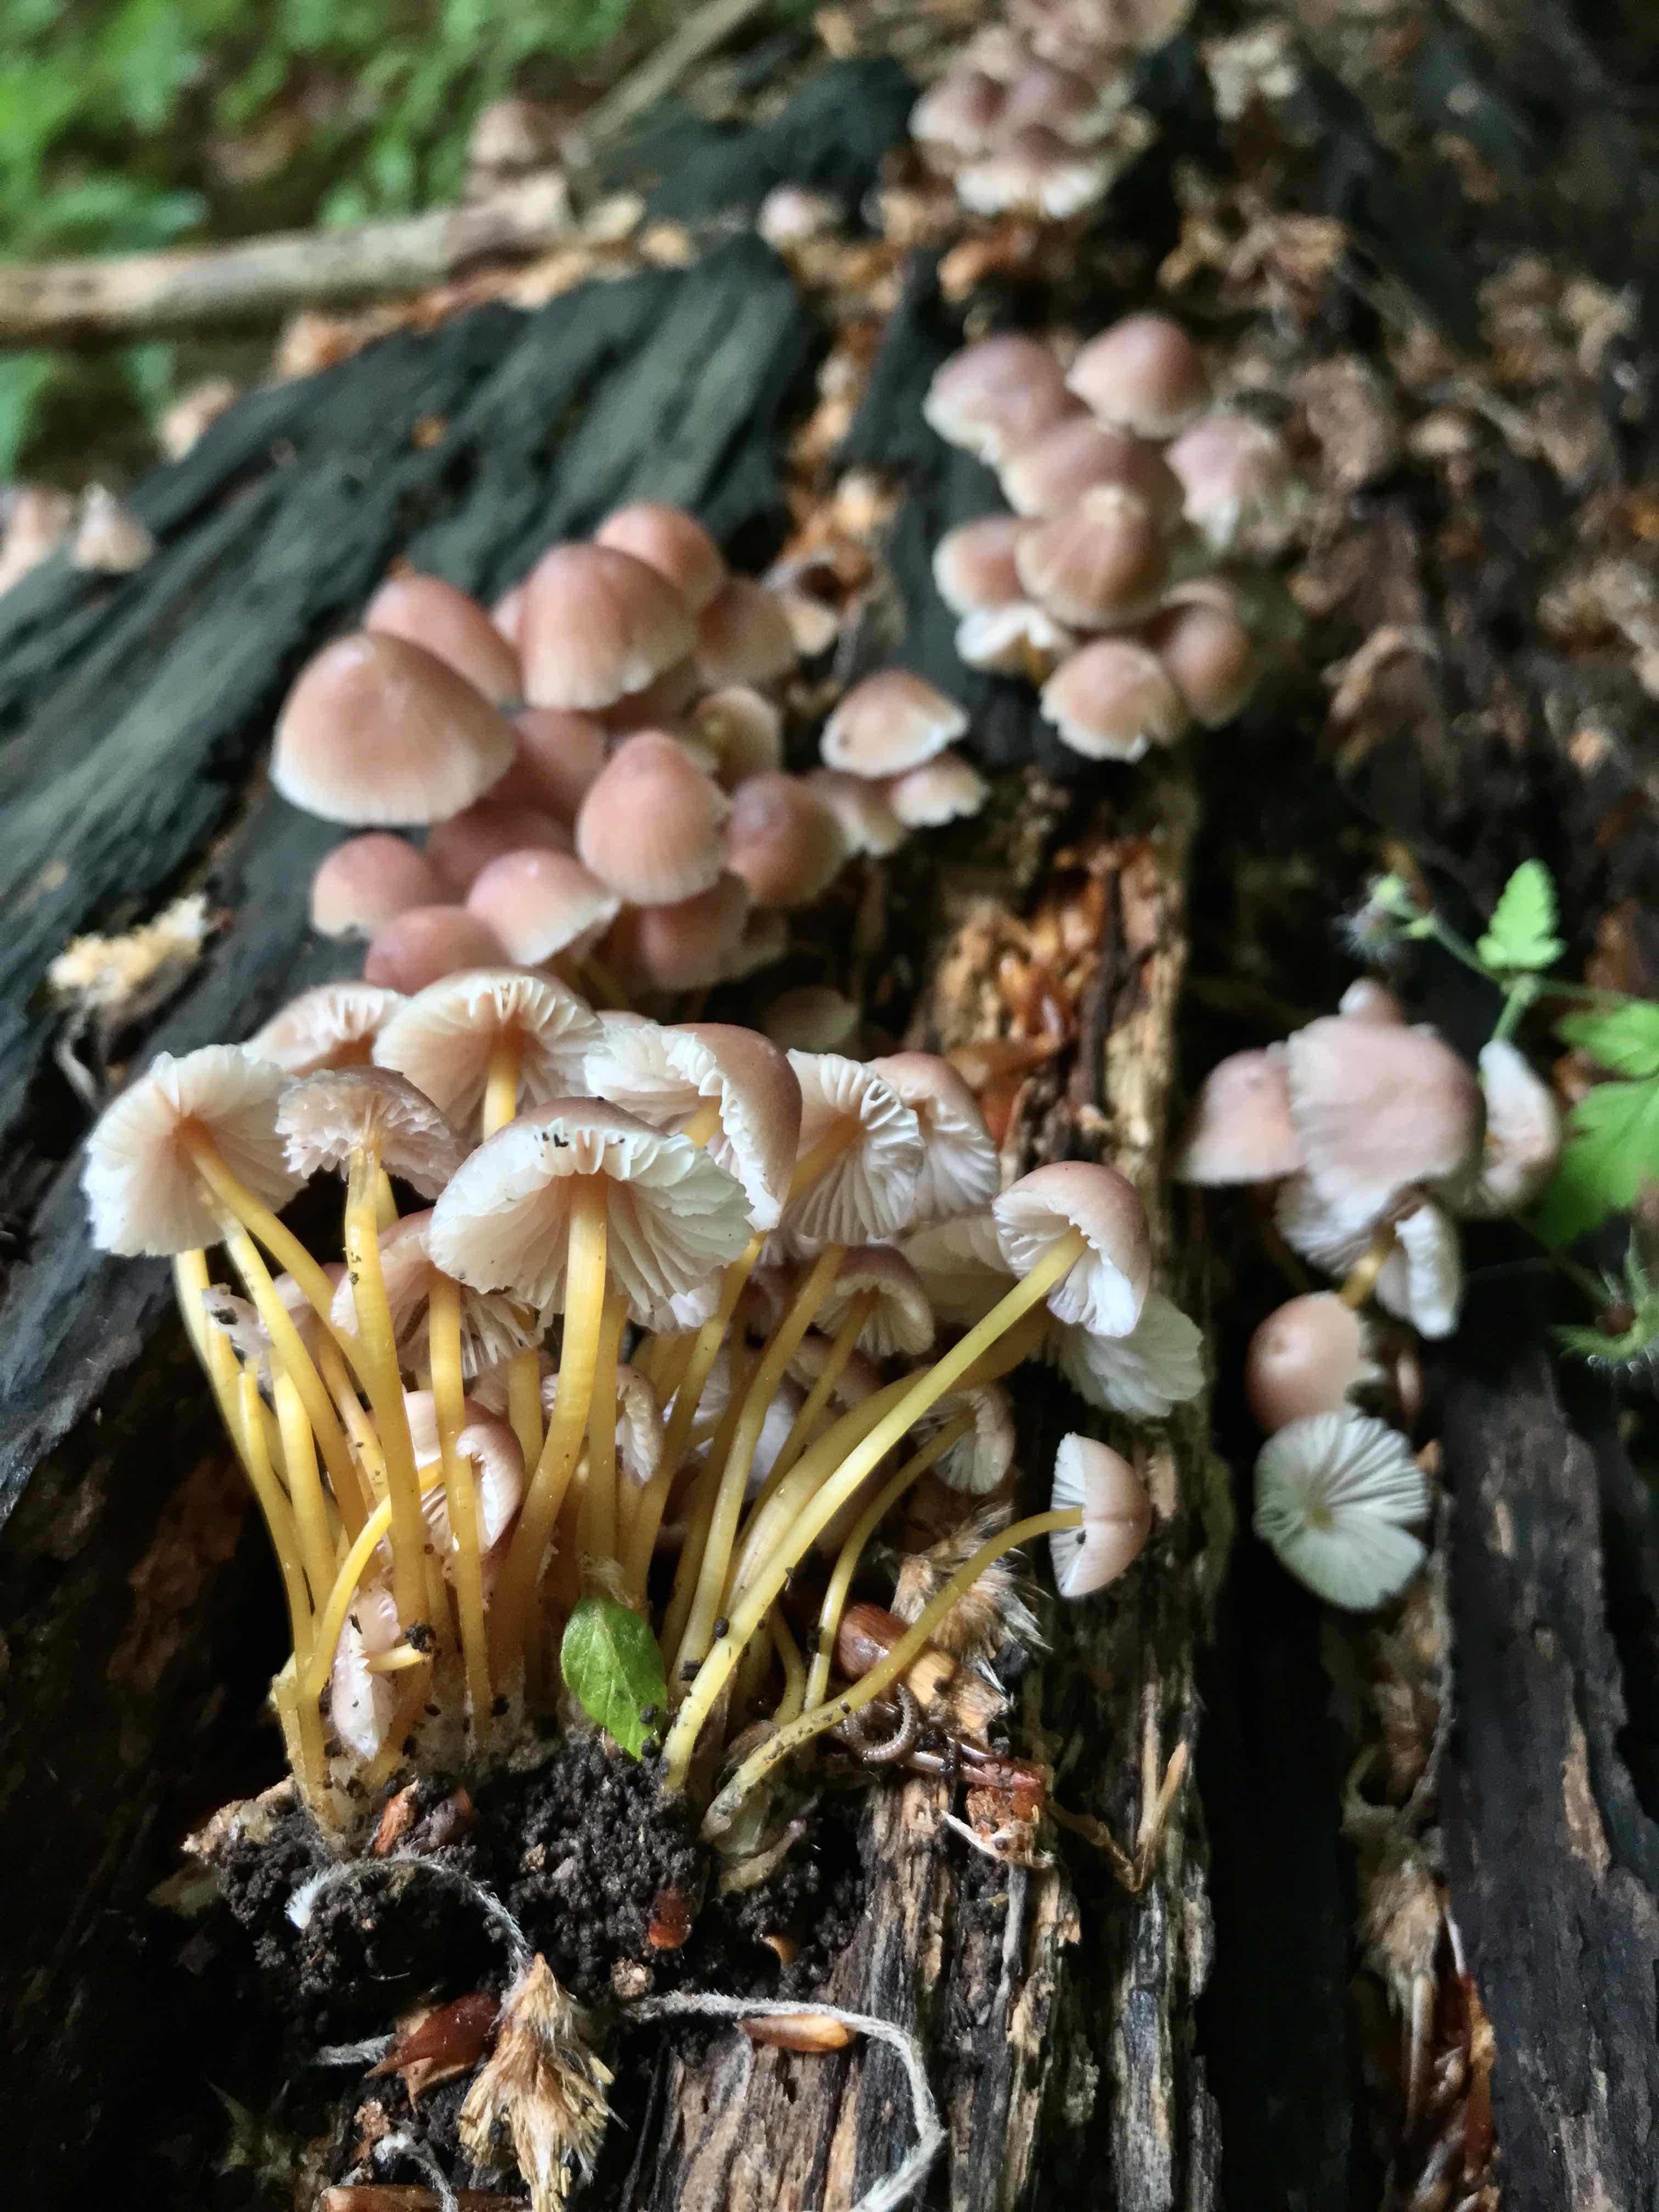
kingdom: Fungi
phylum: Basidiomycota
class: Agaricomycetes
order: Agaricales
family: Mycenaceae
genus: Mycena
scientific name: Mycena renati
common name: smuk huesvamp
